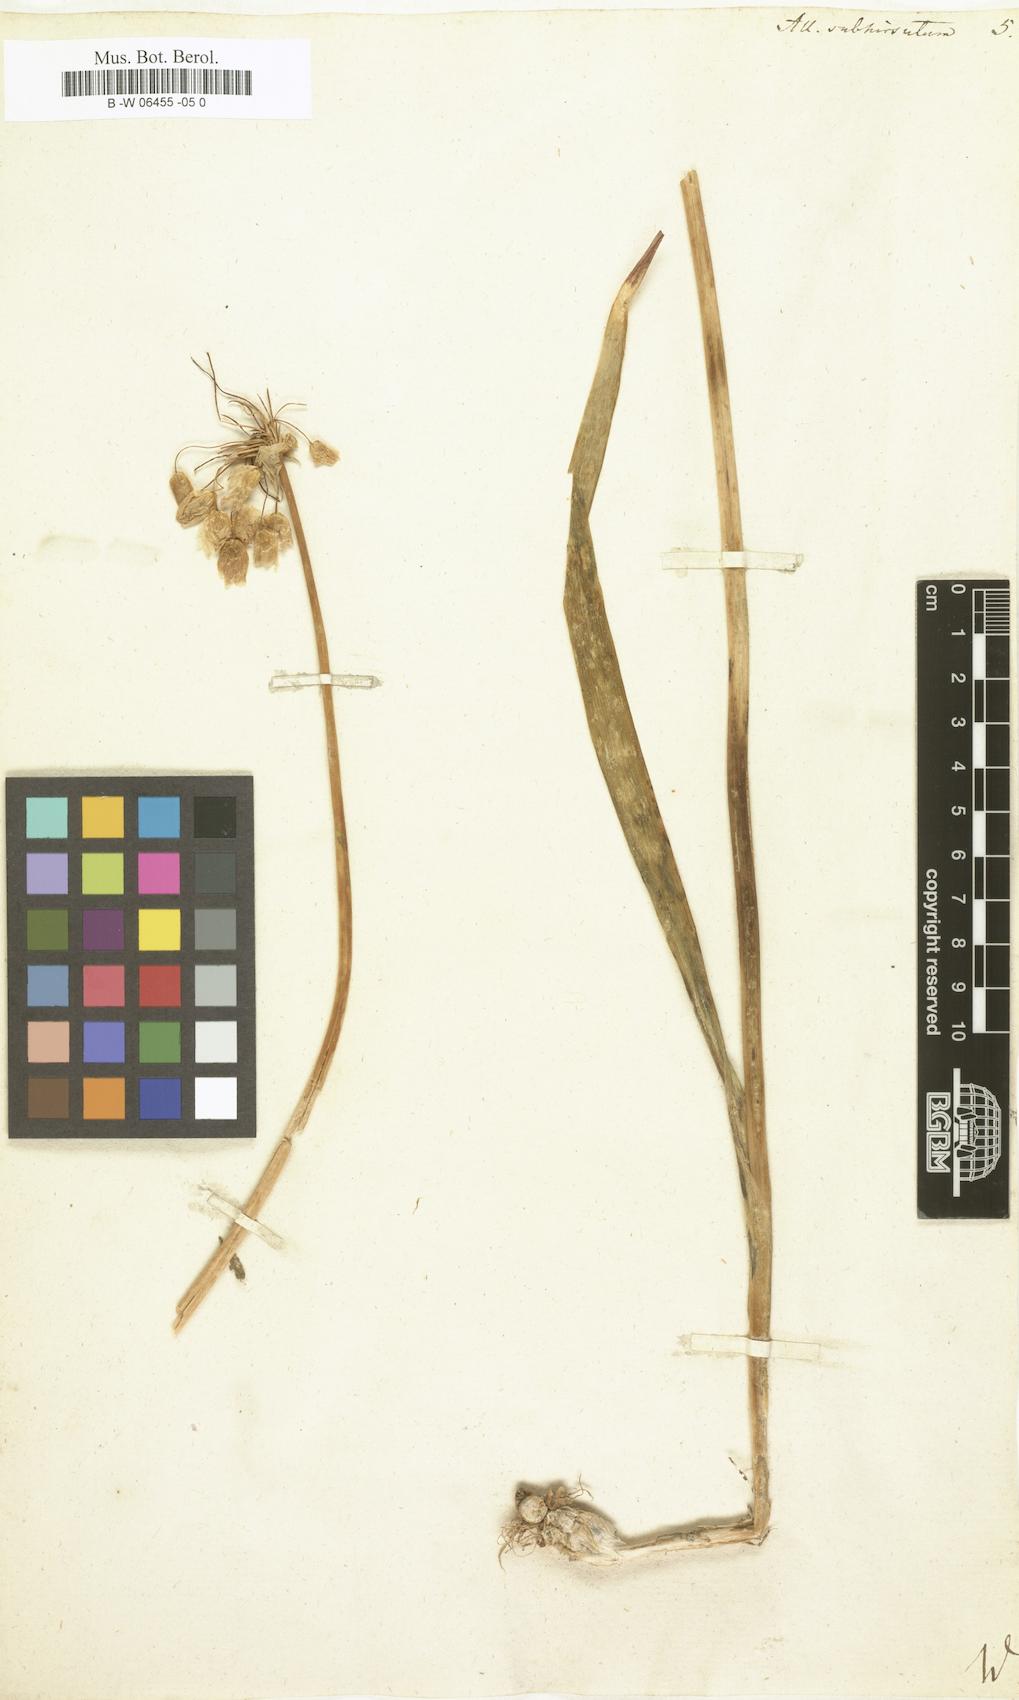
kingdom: Plantae
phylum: Tracheophyta
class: Liliopsida
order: Asparagales
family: Amaryllidaceae
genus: Allium
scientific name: Allium subhirsutum
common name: Hairy garlic
